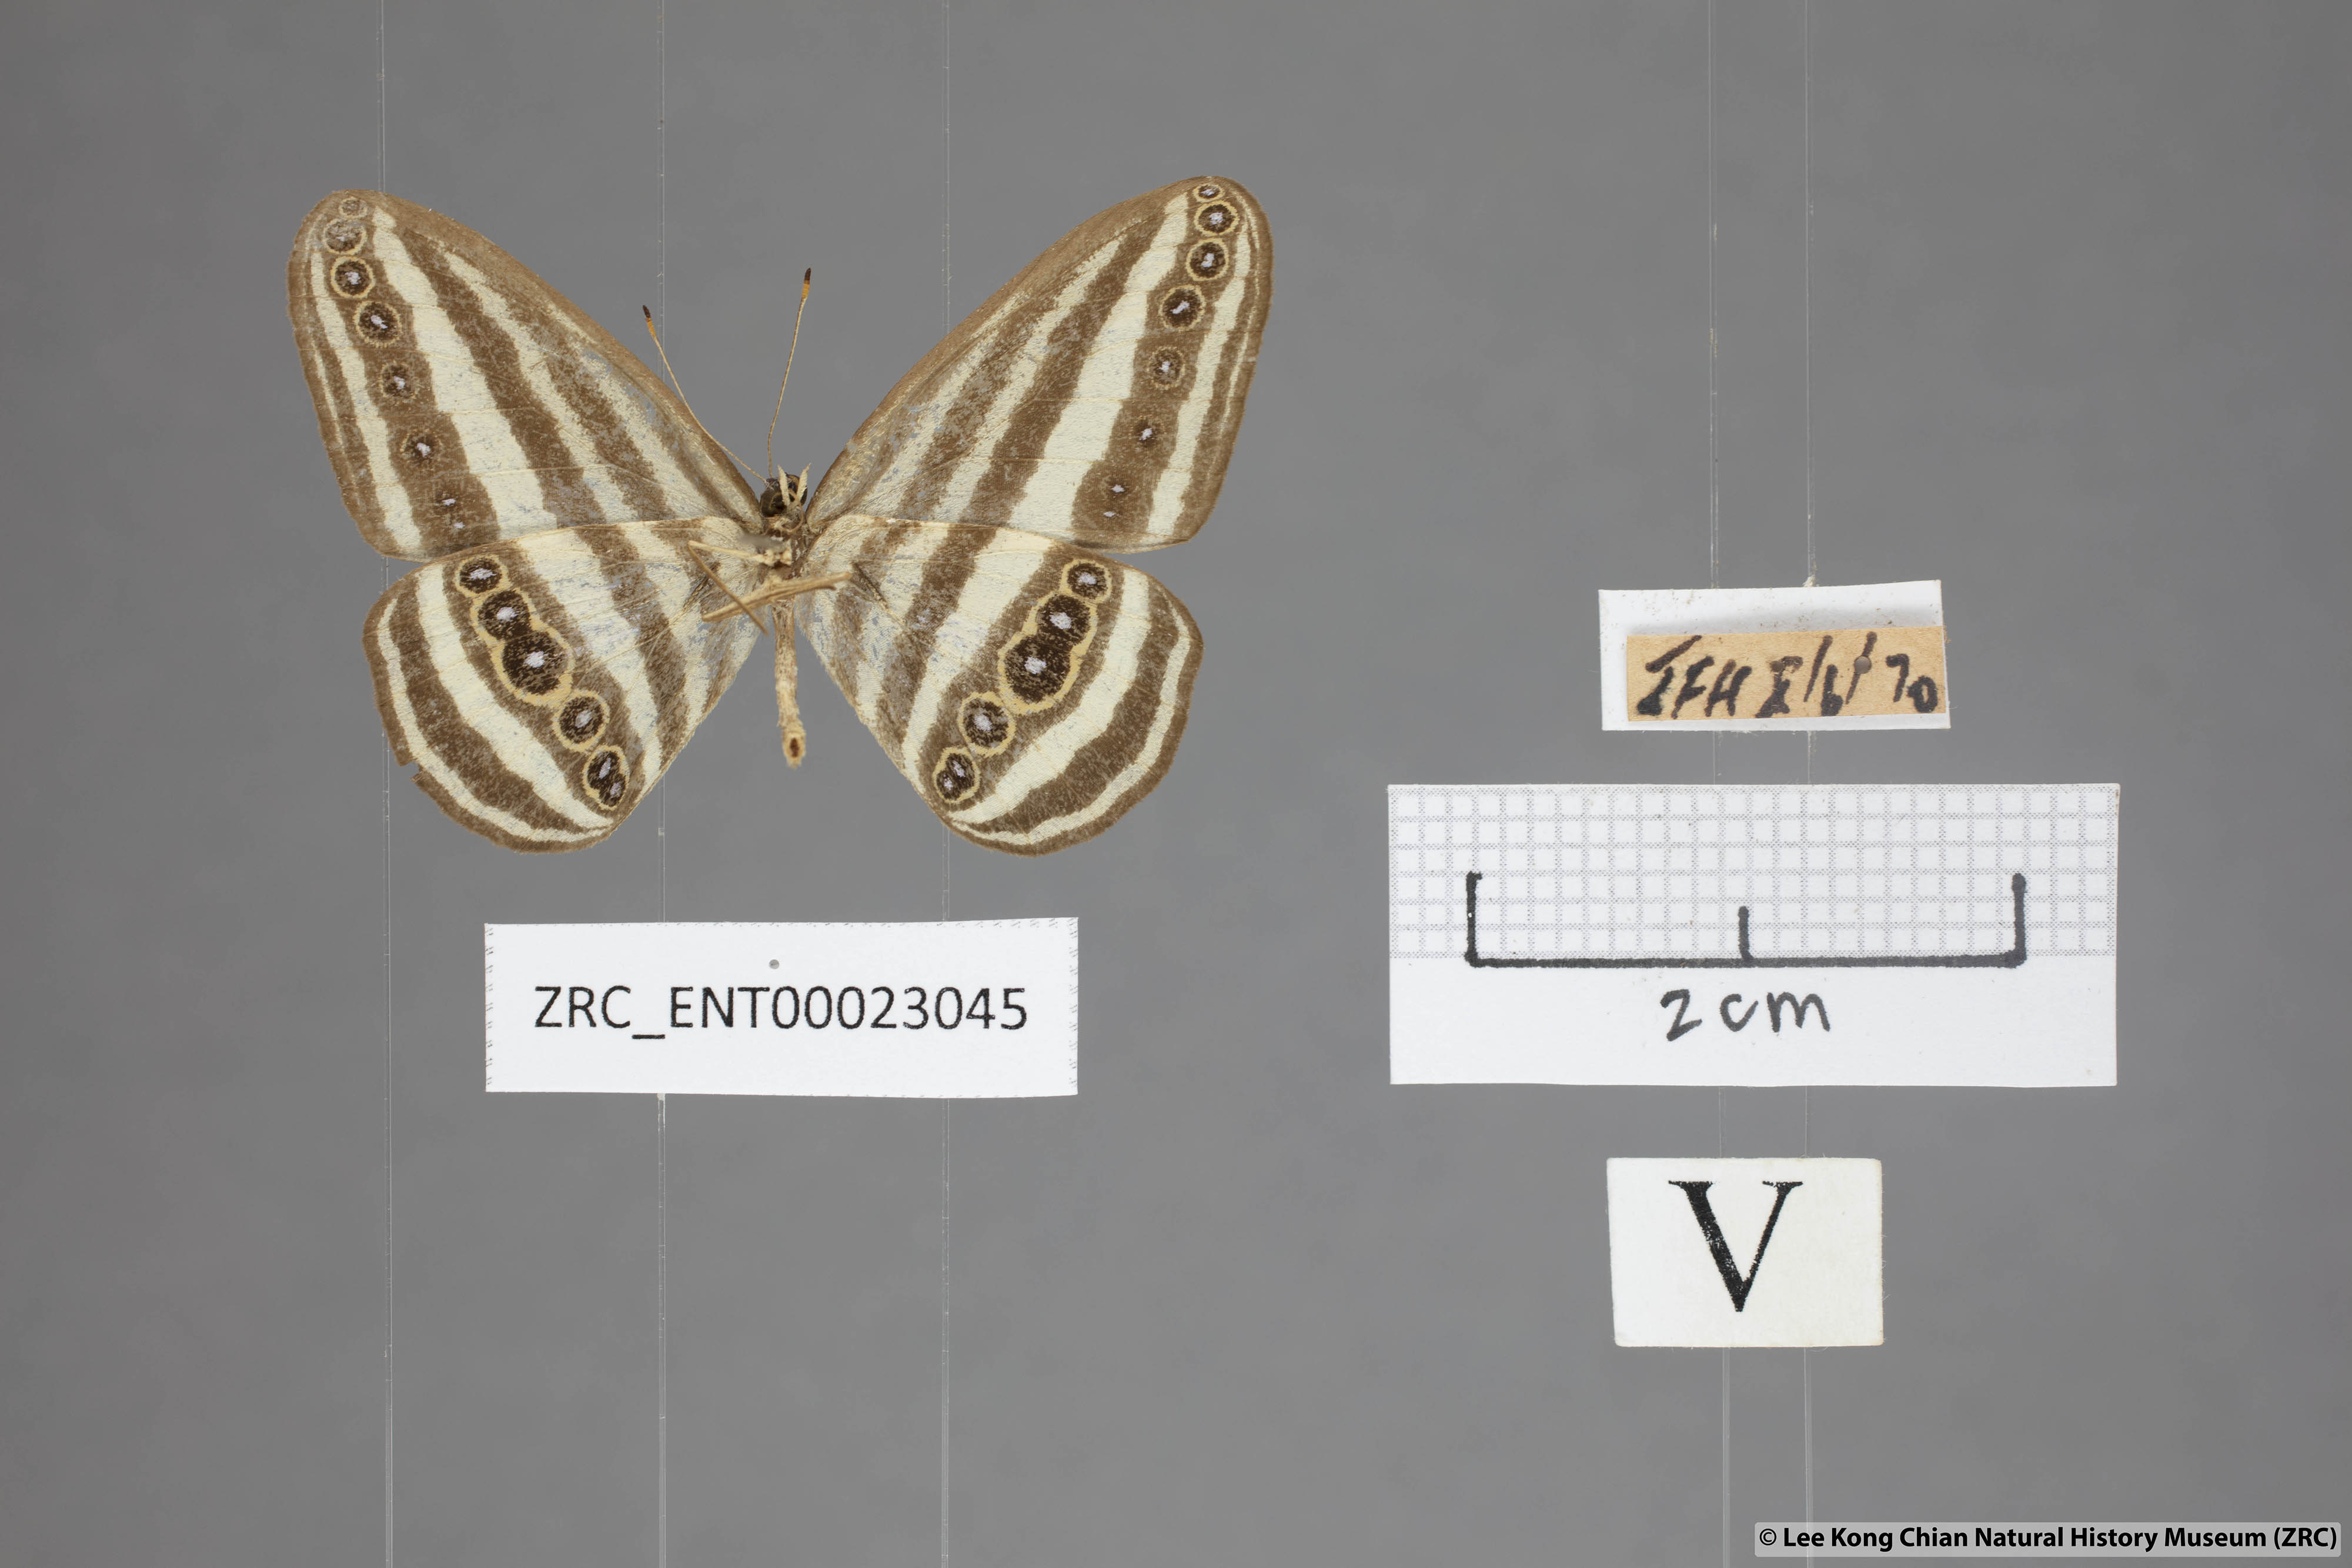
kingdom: Animalia
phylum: Arthropoda
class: Insecta
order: Lepidoptera
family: Nymphalidae
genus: Ragadia
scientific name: Ragadia crisilda
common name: White-striped ringlet
